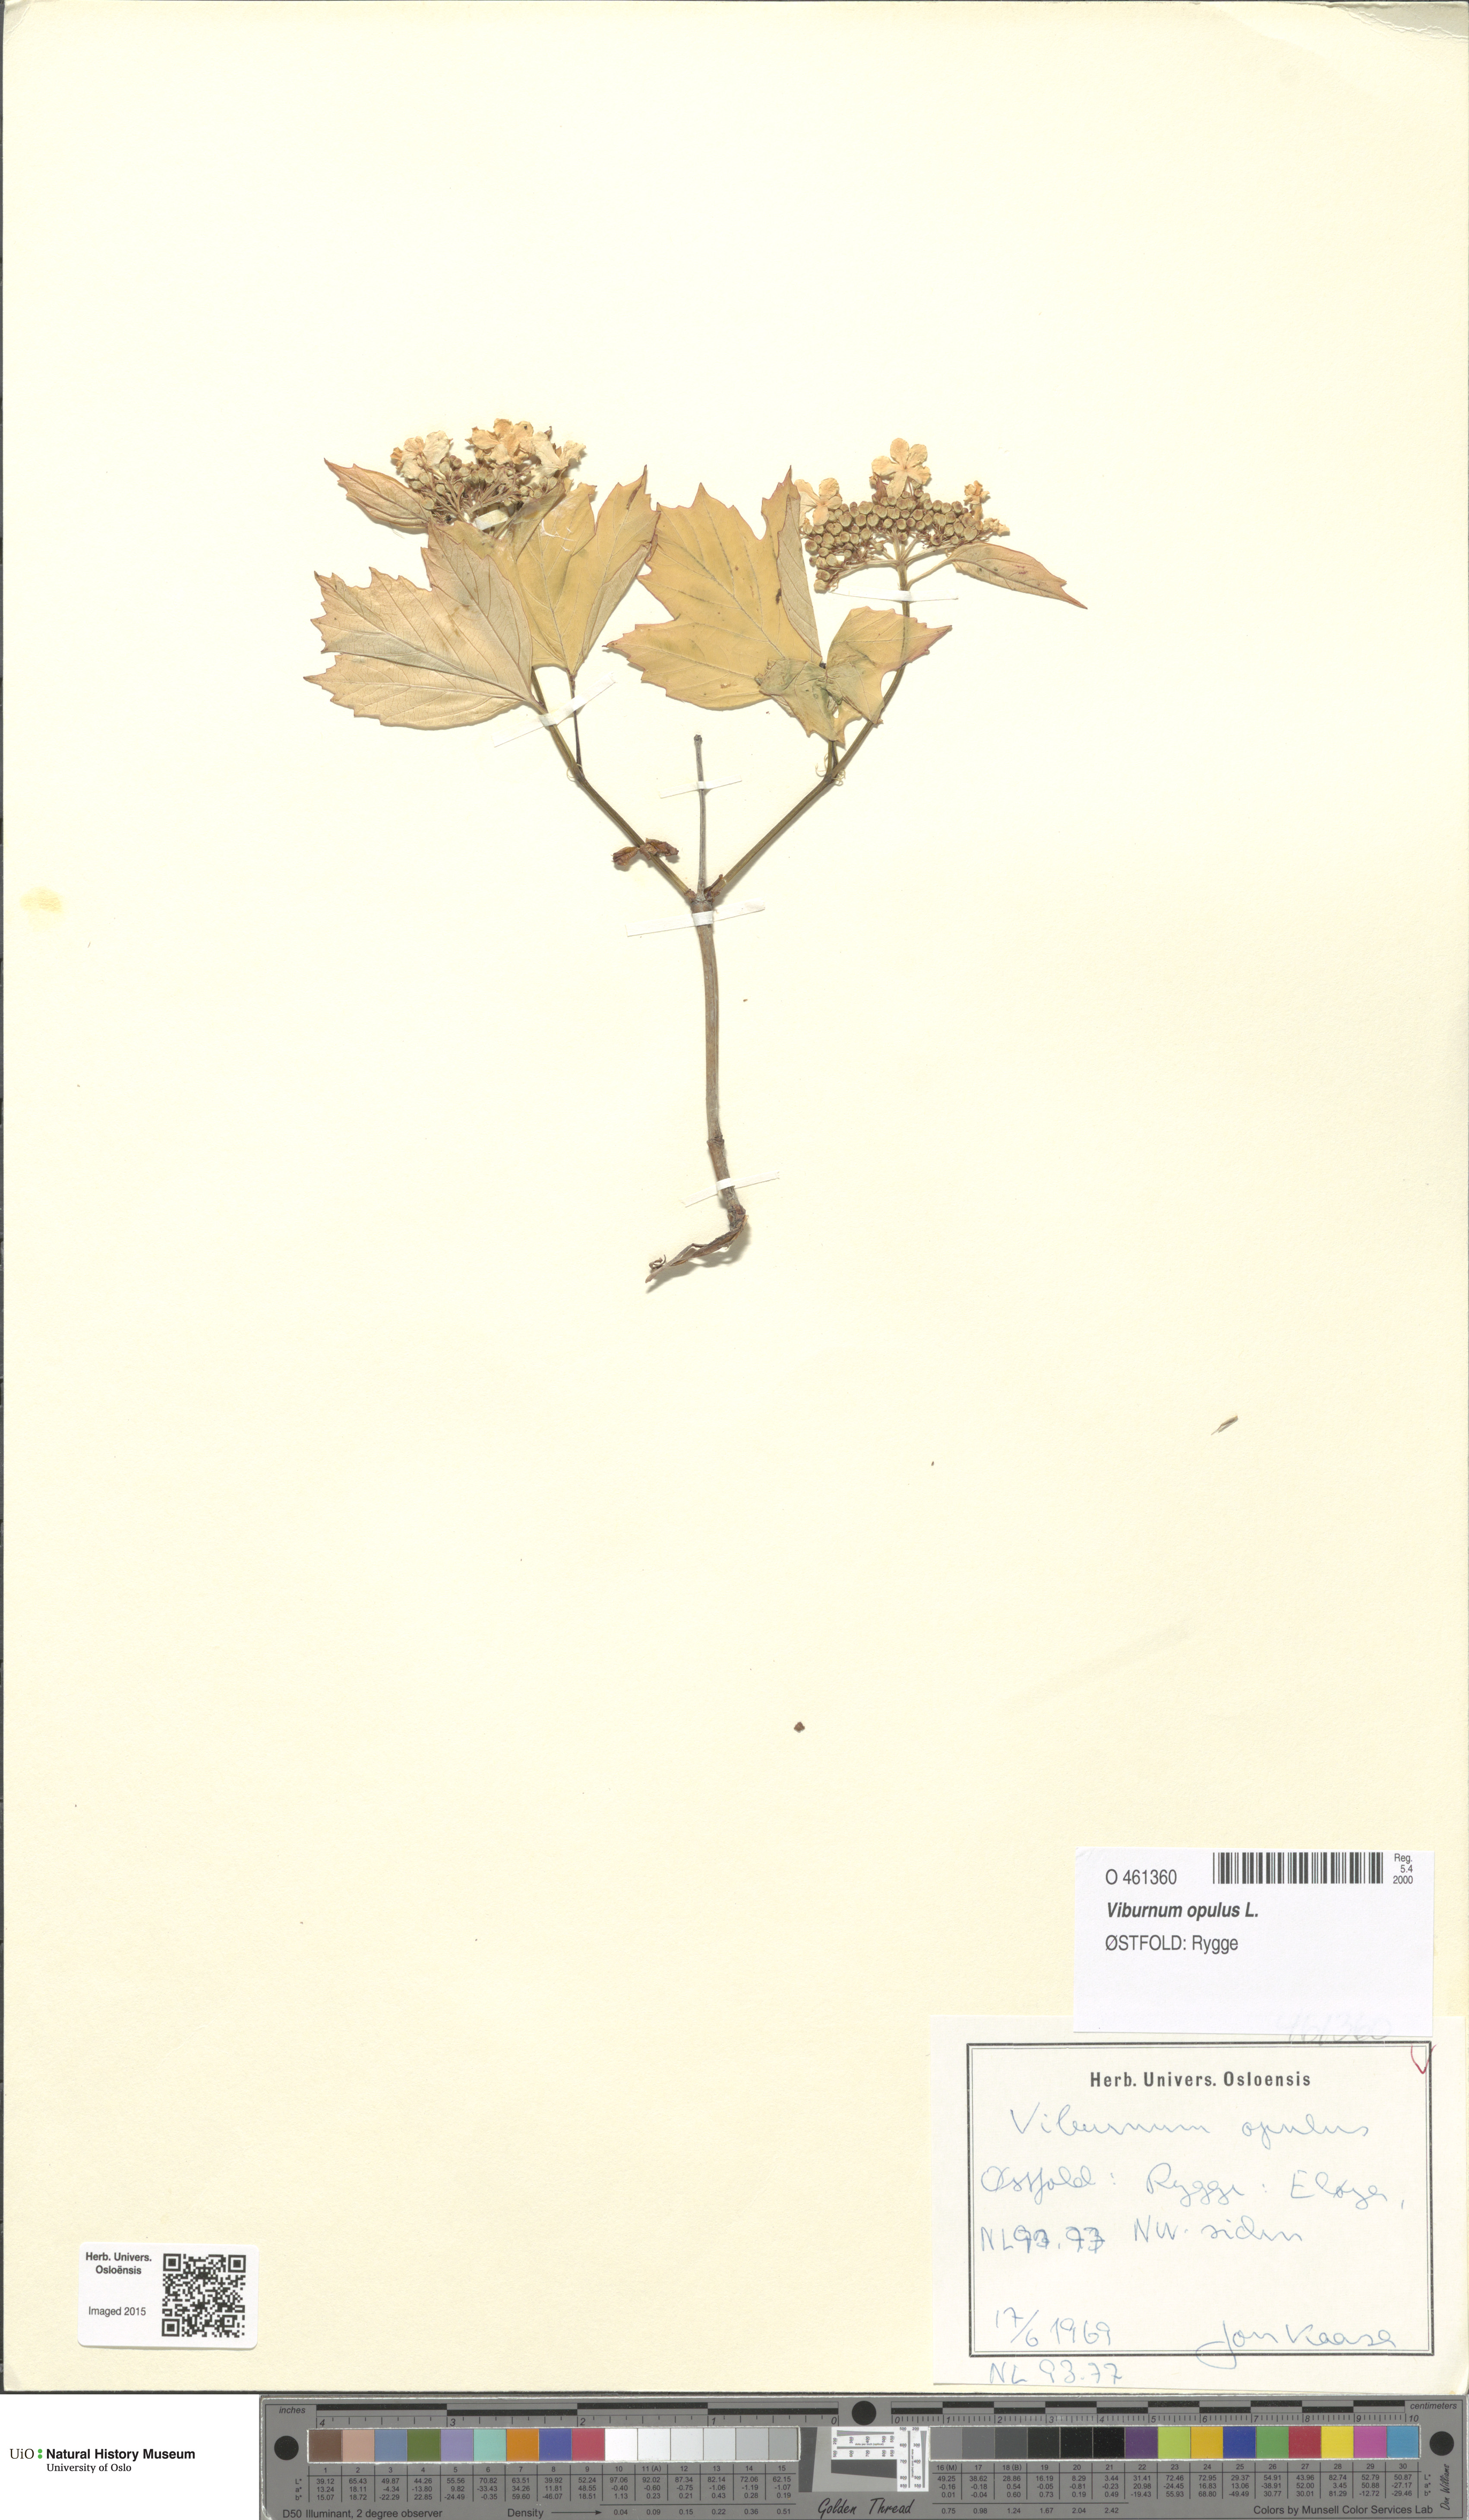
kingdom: Plantae
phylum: Tracheophyta
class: Magnoliopsida
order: Dipsacales
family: Viburnaceae
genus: Viburnum
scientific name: Viburnum opulus
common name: Guelder-rose
